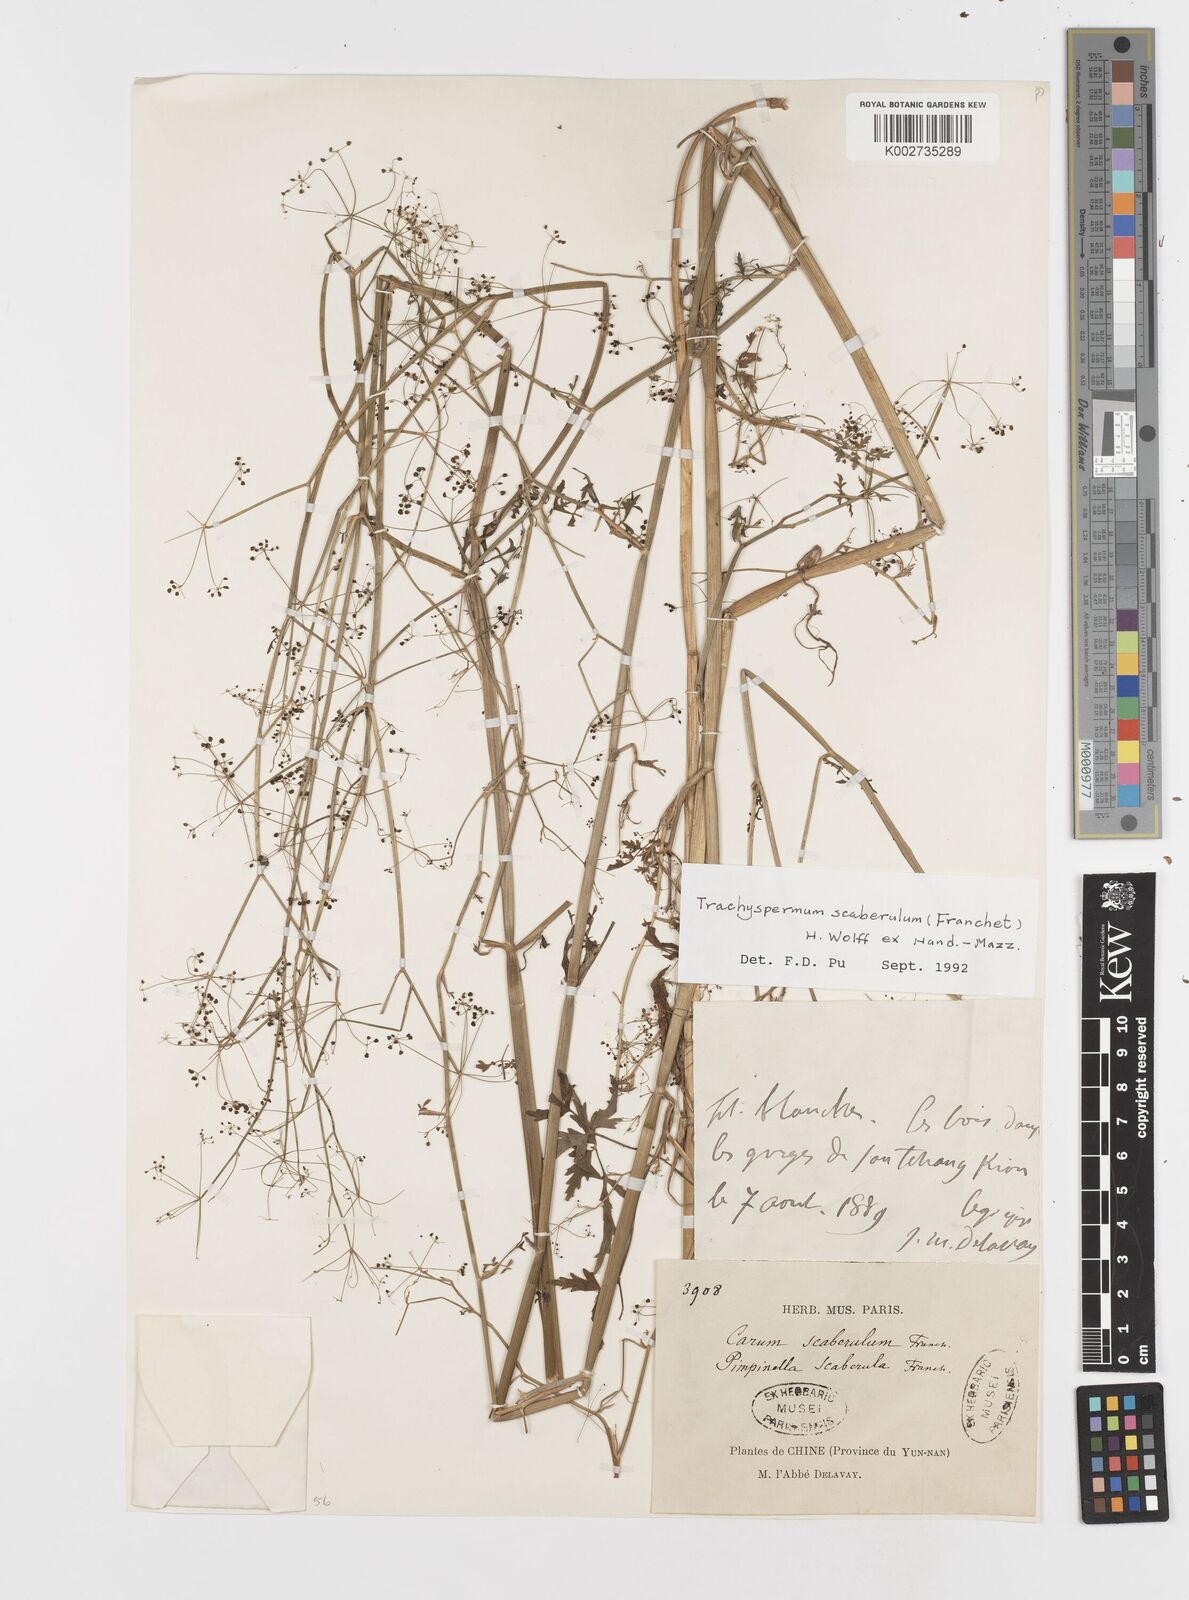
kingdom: Plantae
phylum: Tracheophyta
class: Magnoliopsida
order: Apiales
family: Apiaceae
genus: Pimpinella
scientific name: Pimpinella scaberula
